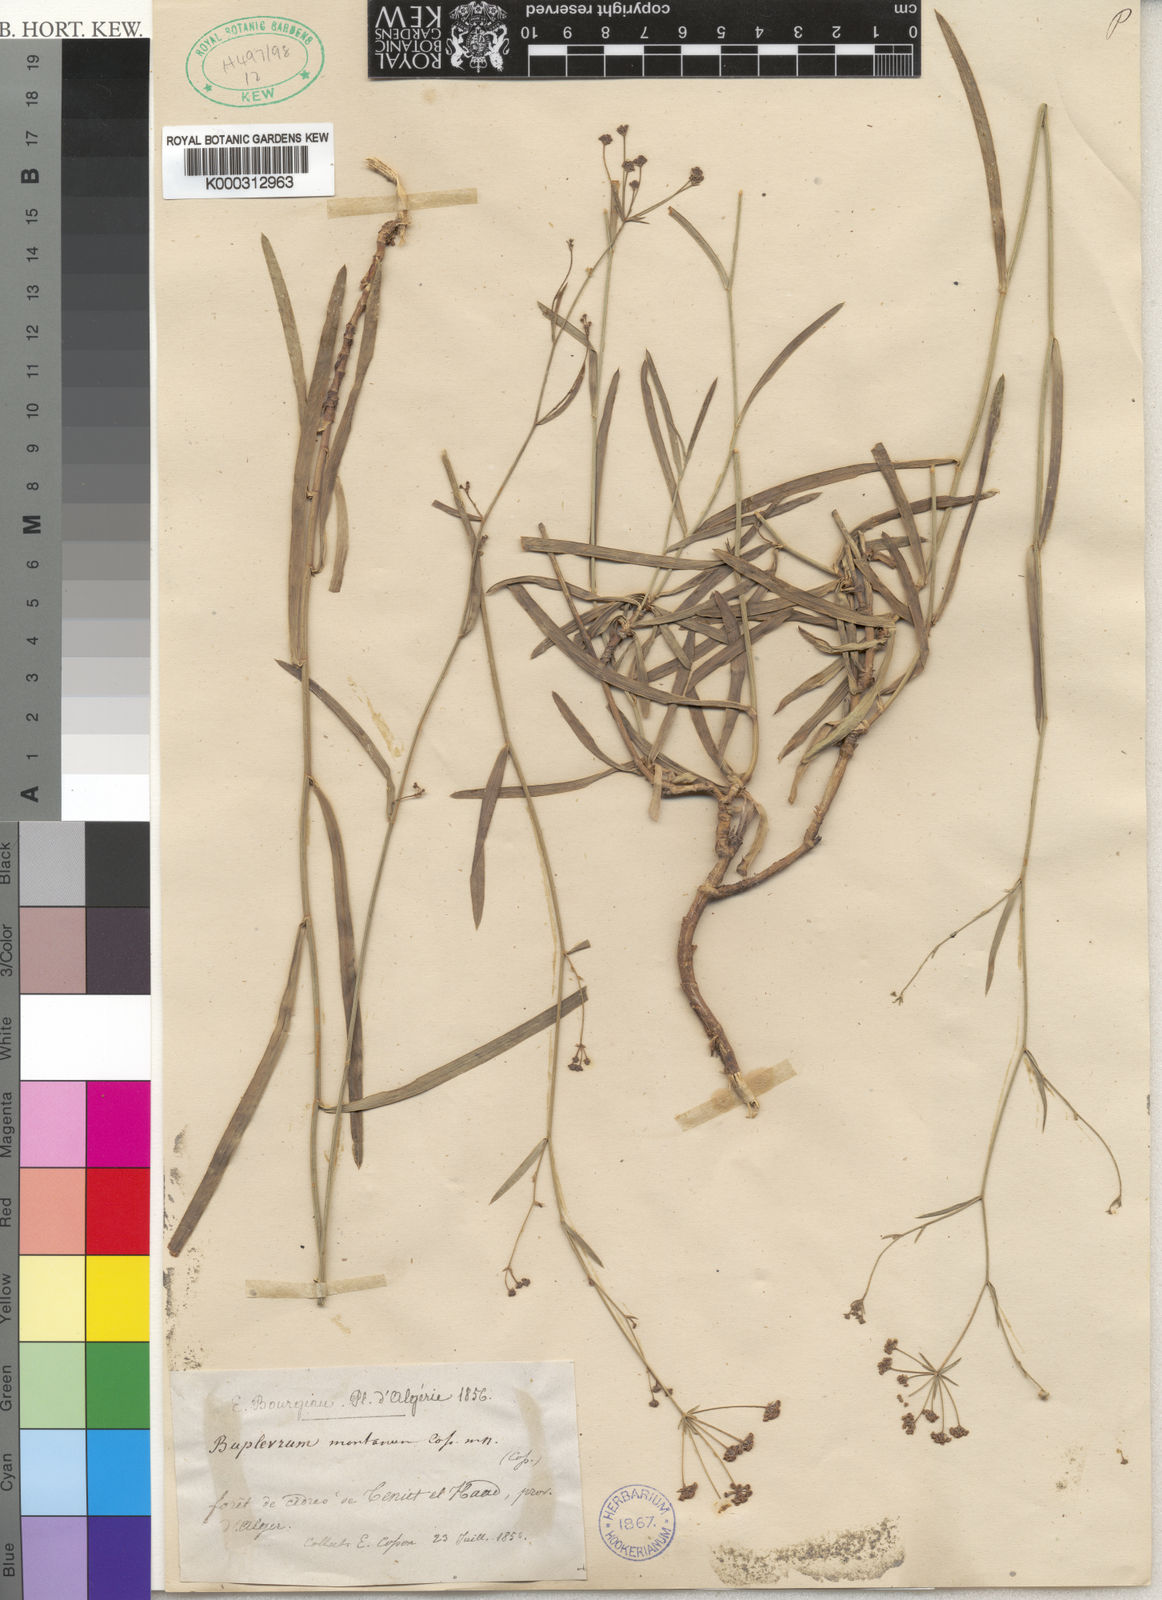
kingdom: Plantae
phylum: Tracheophyta
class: Magnoliopsida
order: Apiales
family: Apiaceae
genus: Bupleurum
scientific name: Bupleurum
